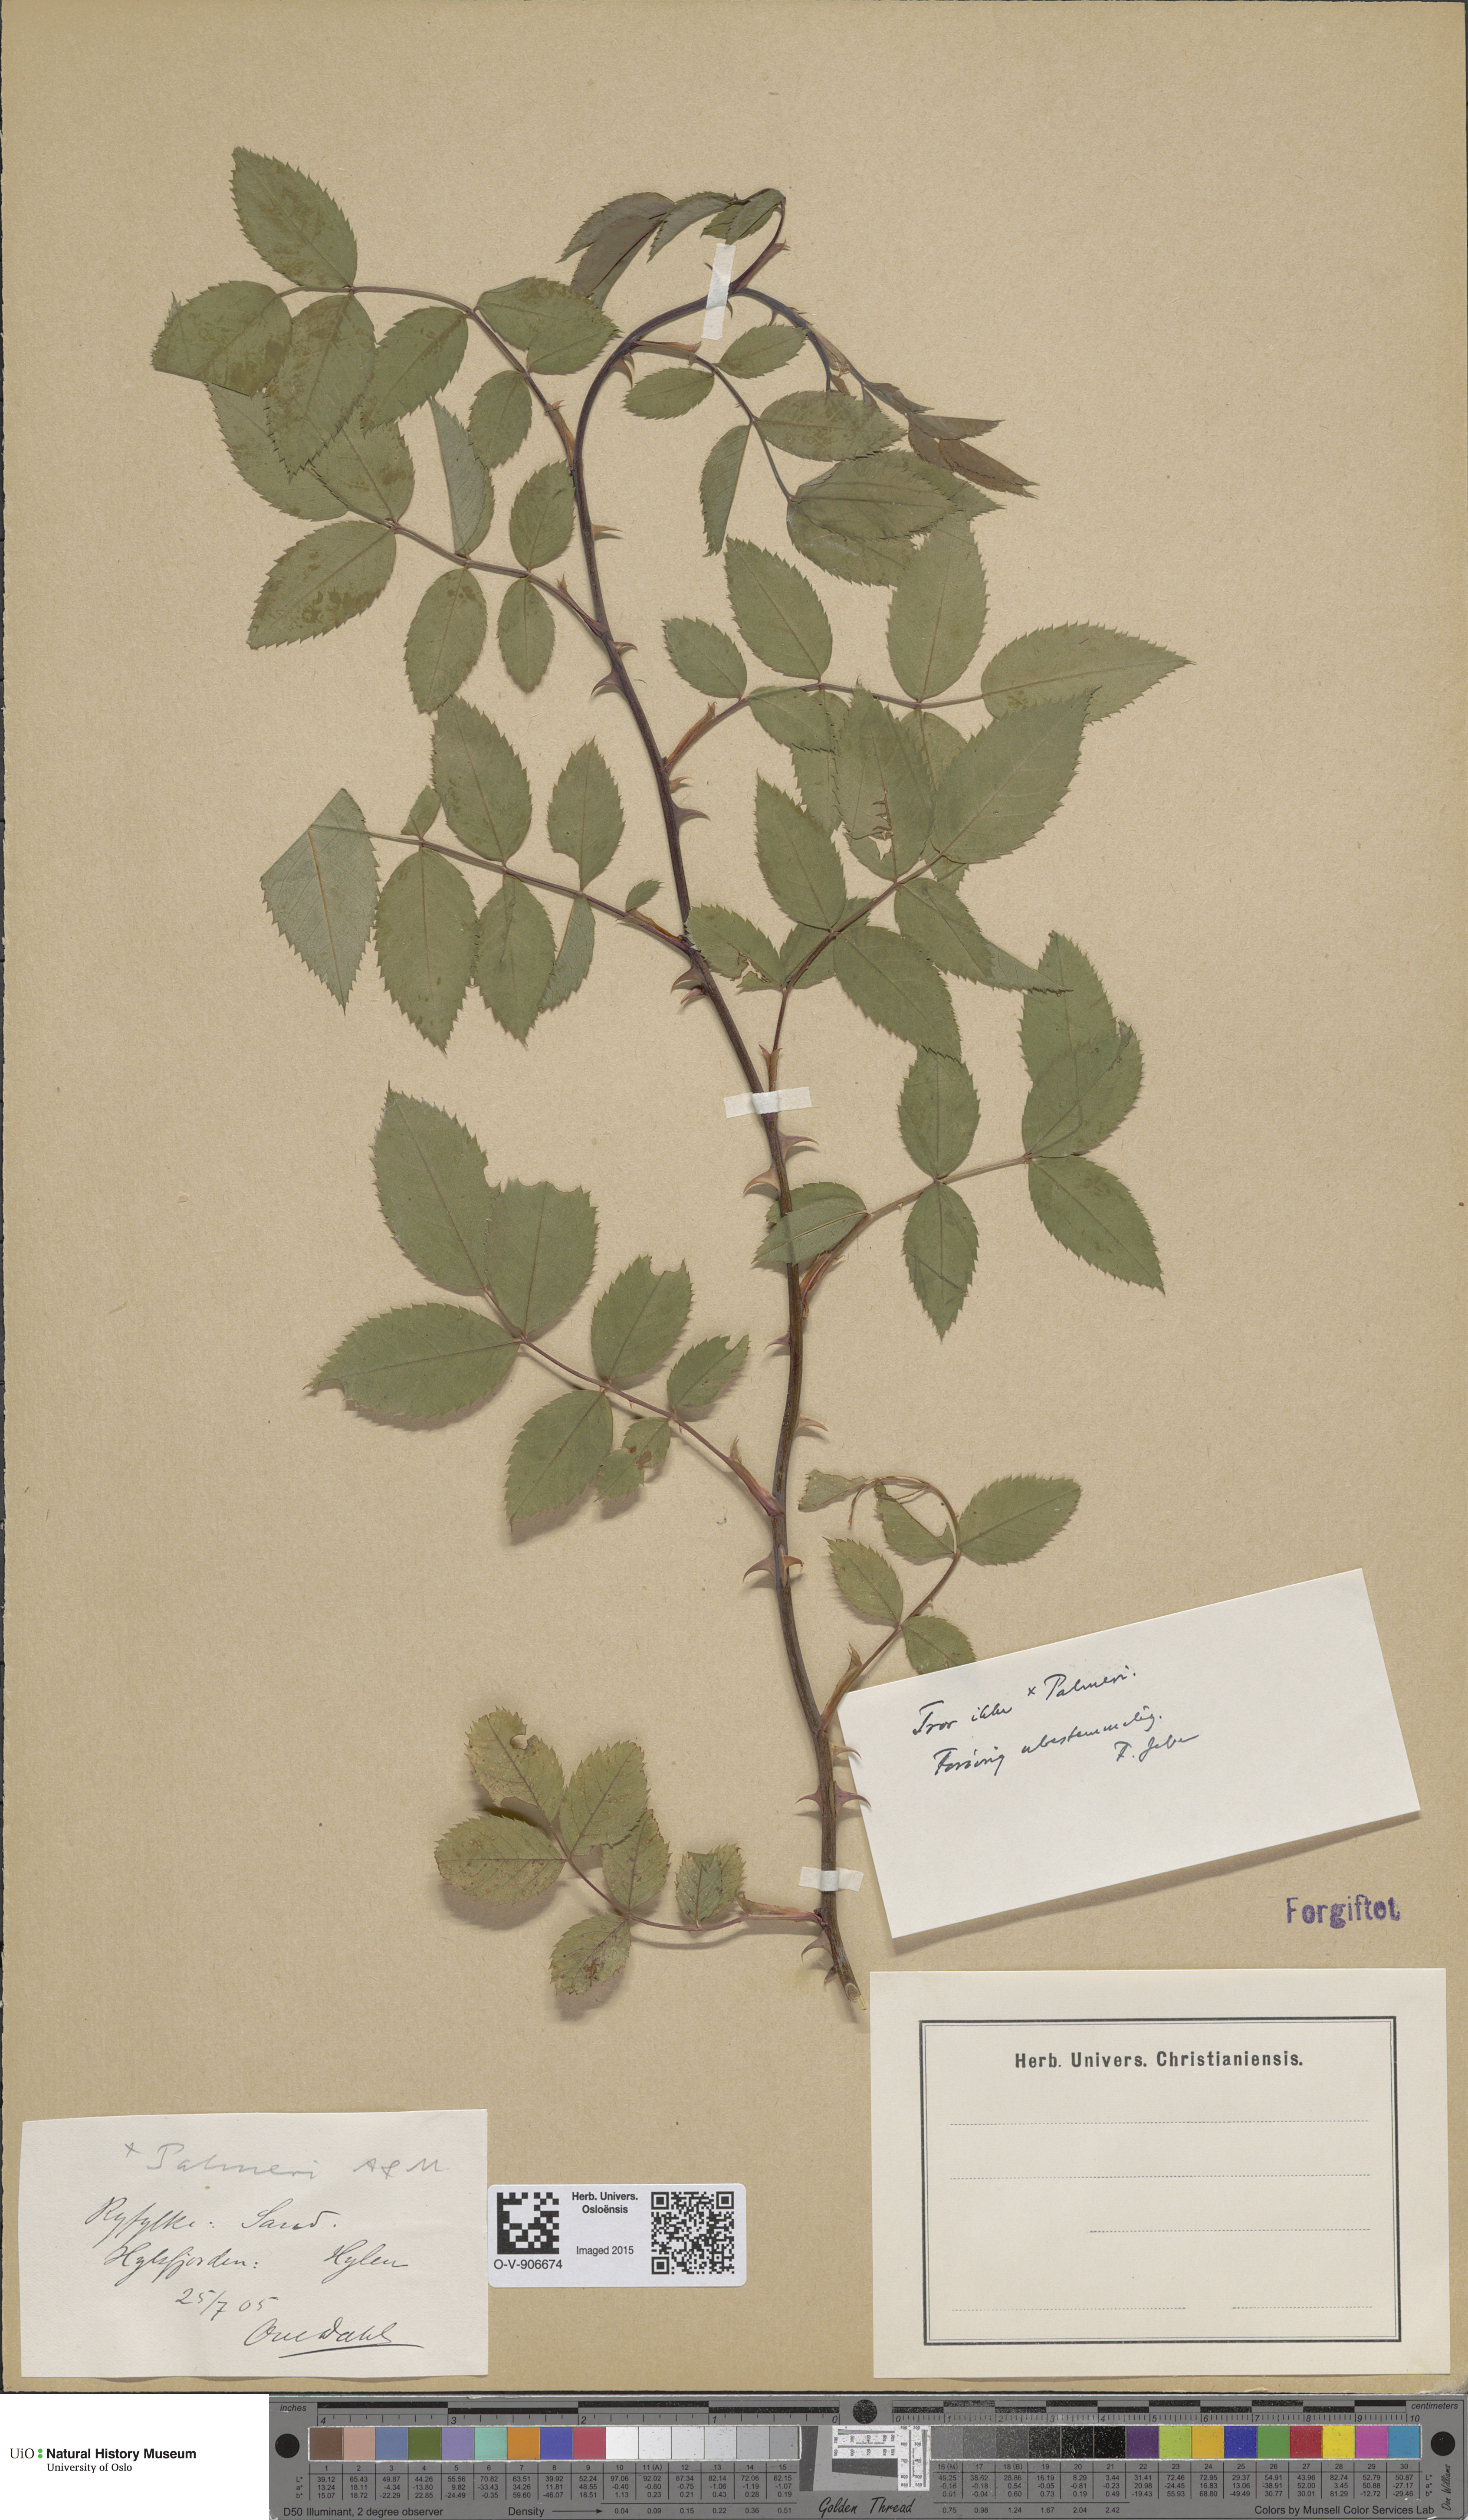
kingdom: Plantae
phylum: Tracheophyta
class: Magnoliopsida
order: Rosales
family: Rosaceae
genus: Rosa
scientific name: Rosa
